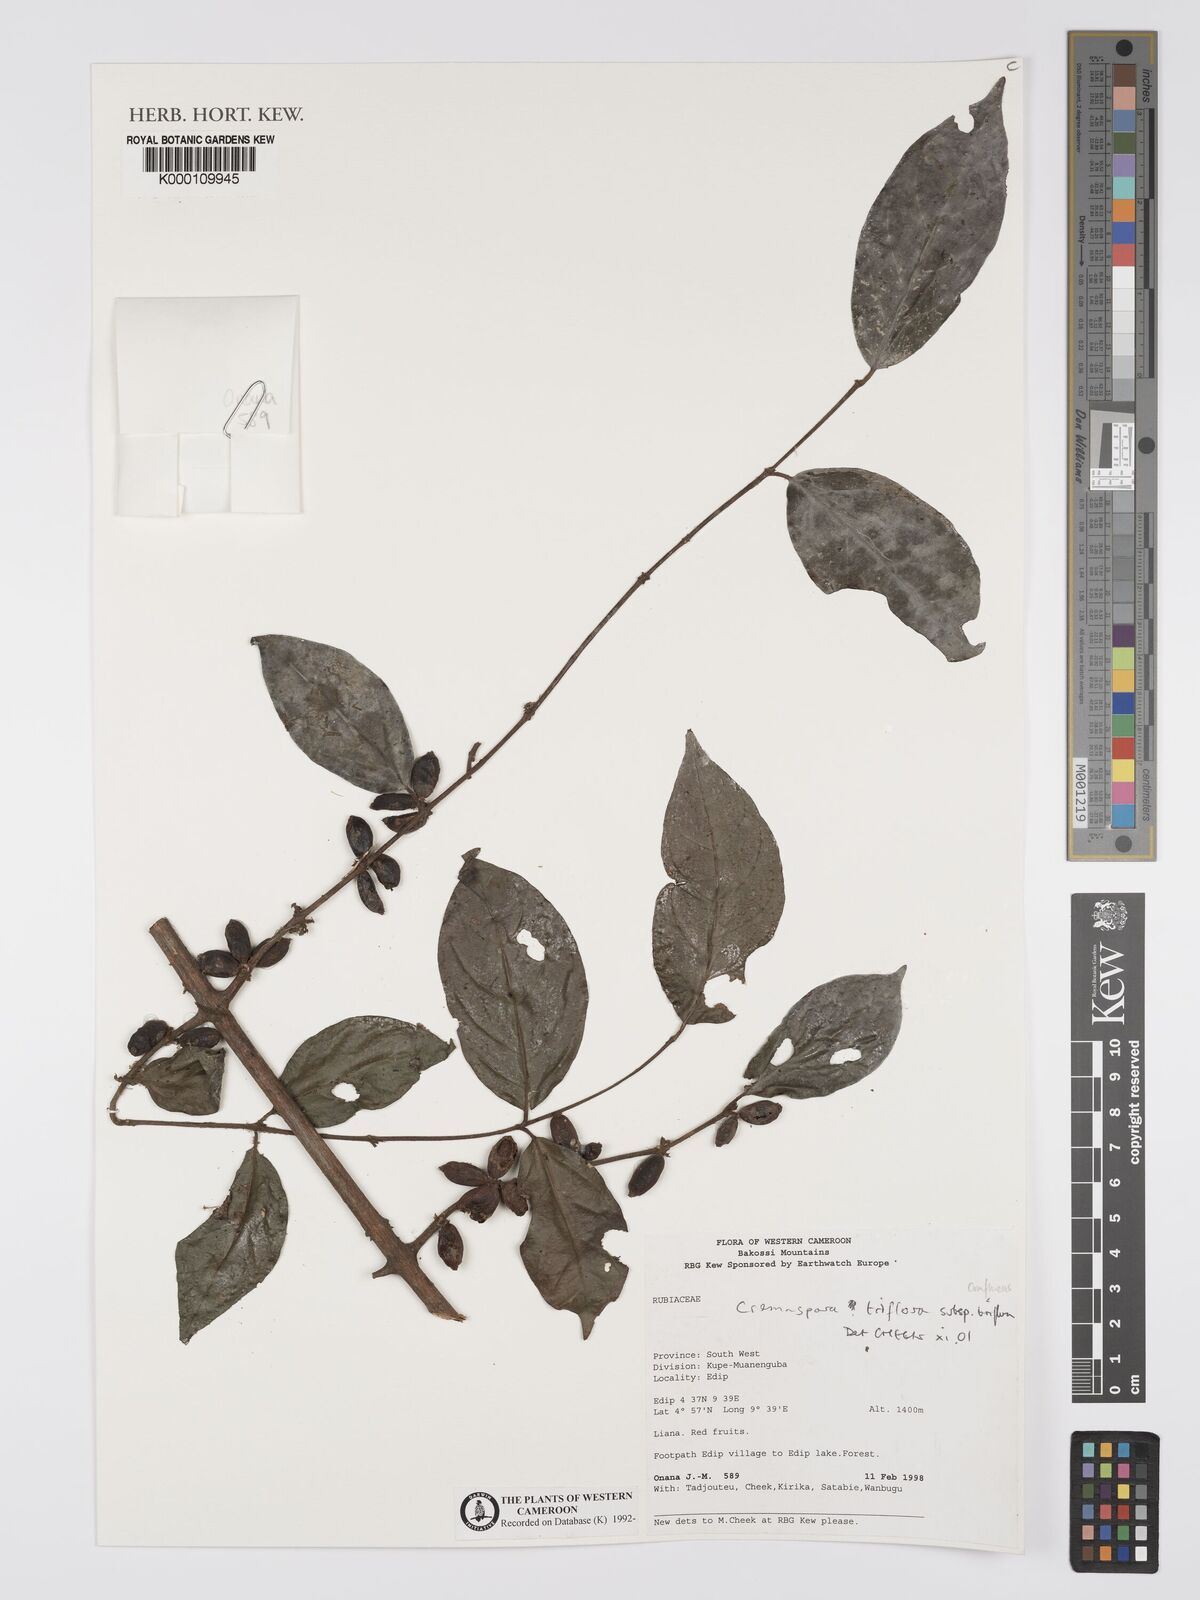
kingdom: Plantae
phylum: Tracheophyta
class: Magnoliopsida
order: Gentianales
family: Rubiaceae
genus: Cremaspora
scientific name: Cremaspora triflora
